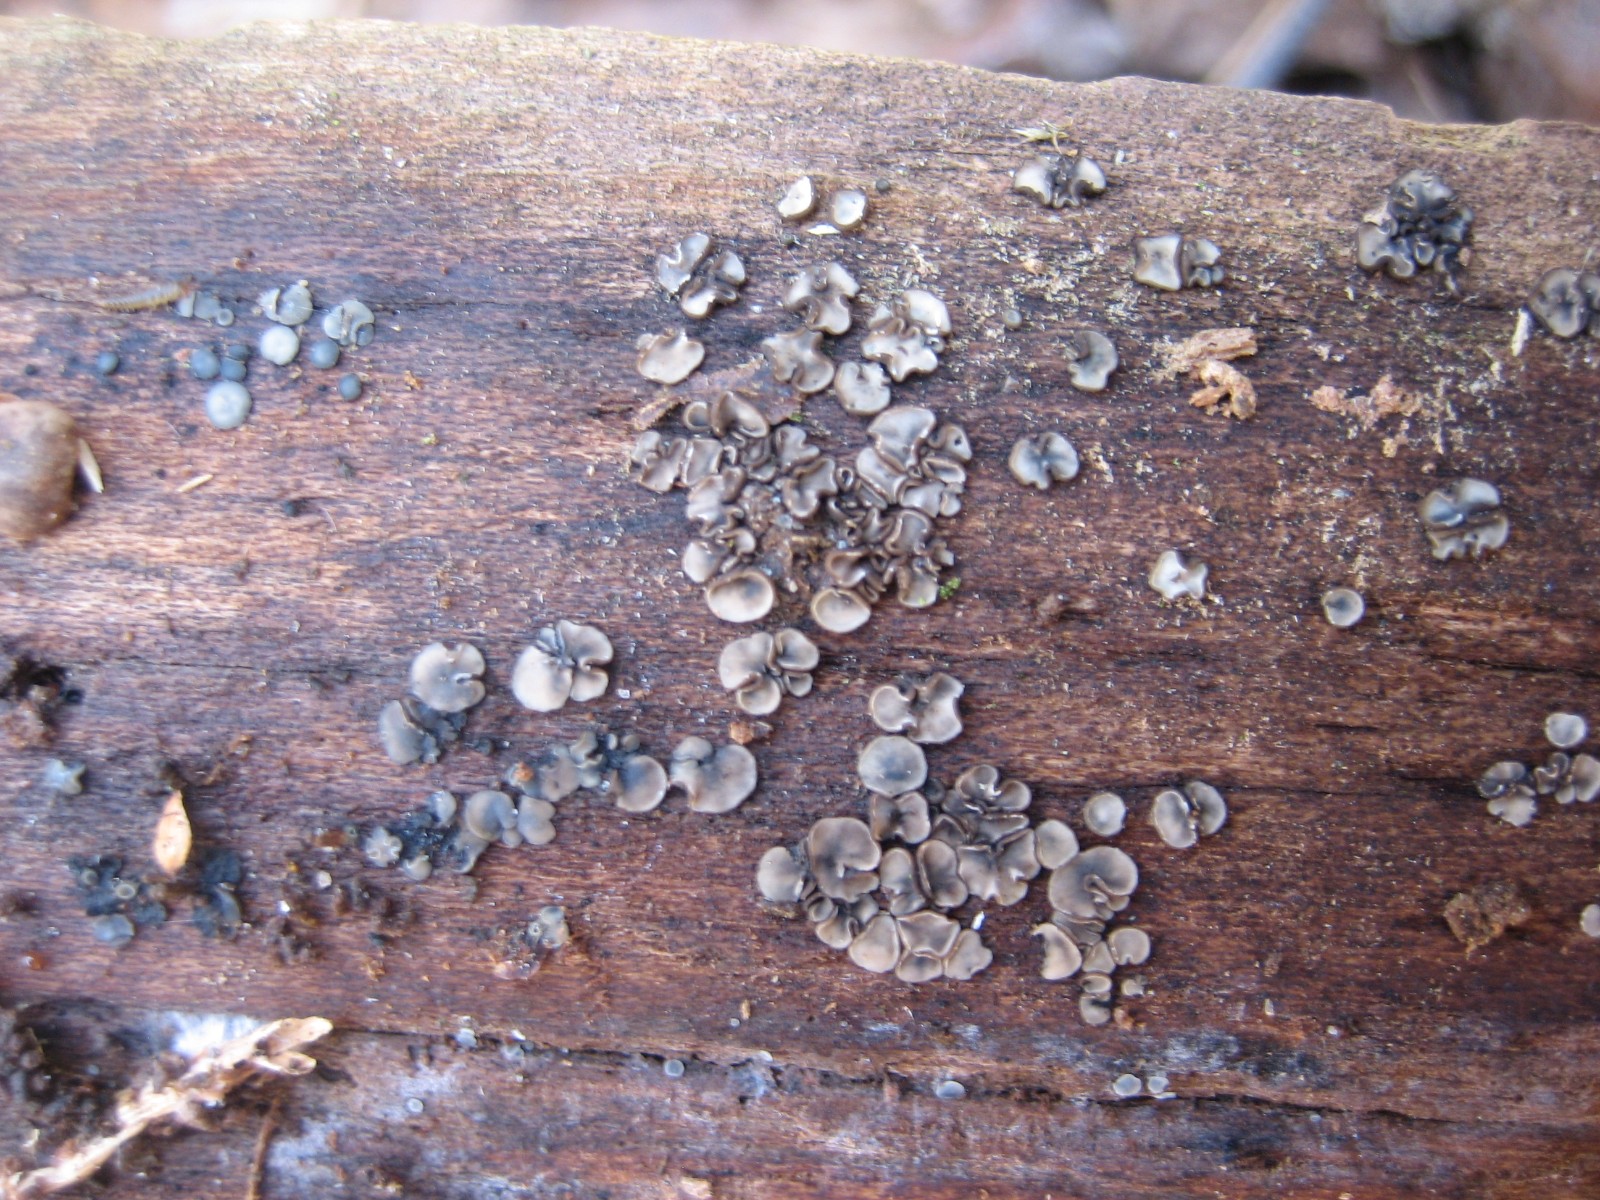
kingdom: Fungi
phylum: Ascomycota
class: Leotiomycetes
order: Helotiales
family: Mollisiaceae
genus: Mollisia
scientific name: Mollisia
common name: gråskive
